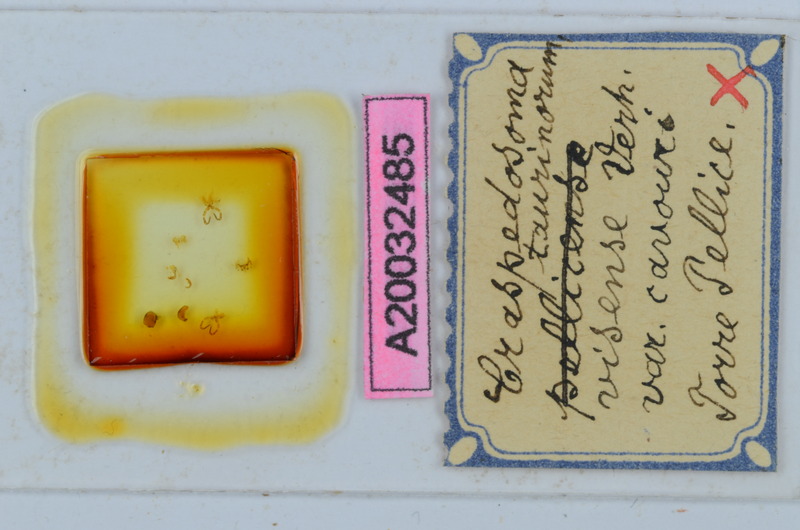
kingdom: Animalia
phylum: Arthropoda
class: Diplopoda
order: Chordeumatida
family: Craspedosomatidae
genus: Craspedosoma
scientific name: Craspedosoma taurinorum
